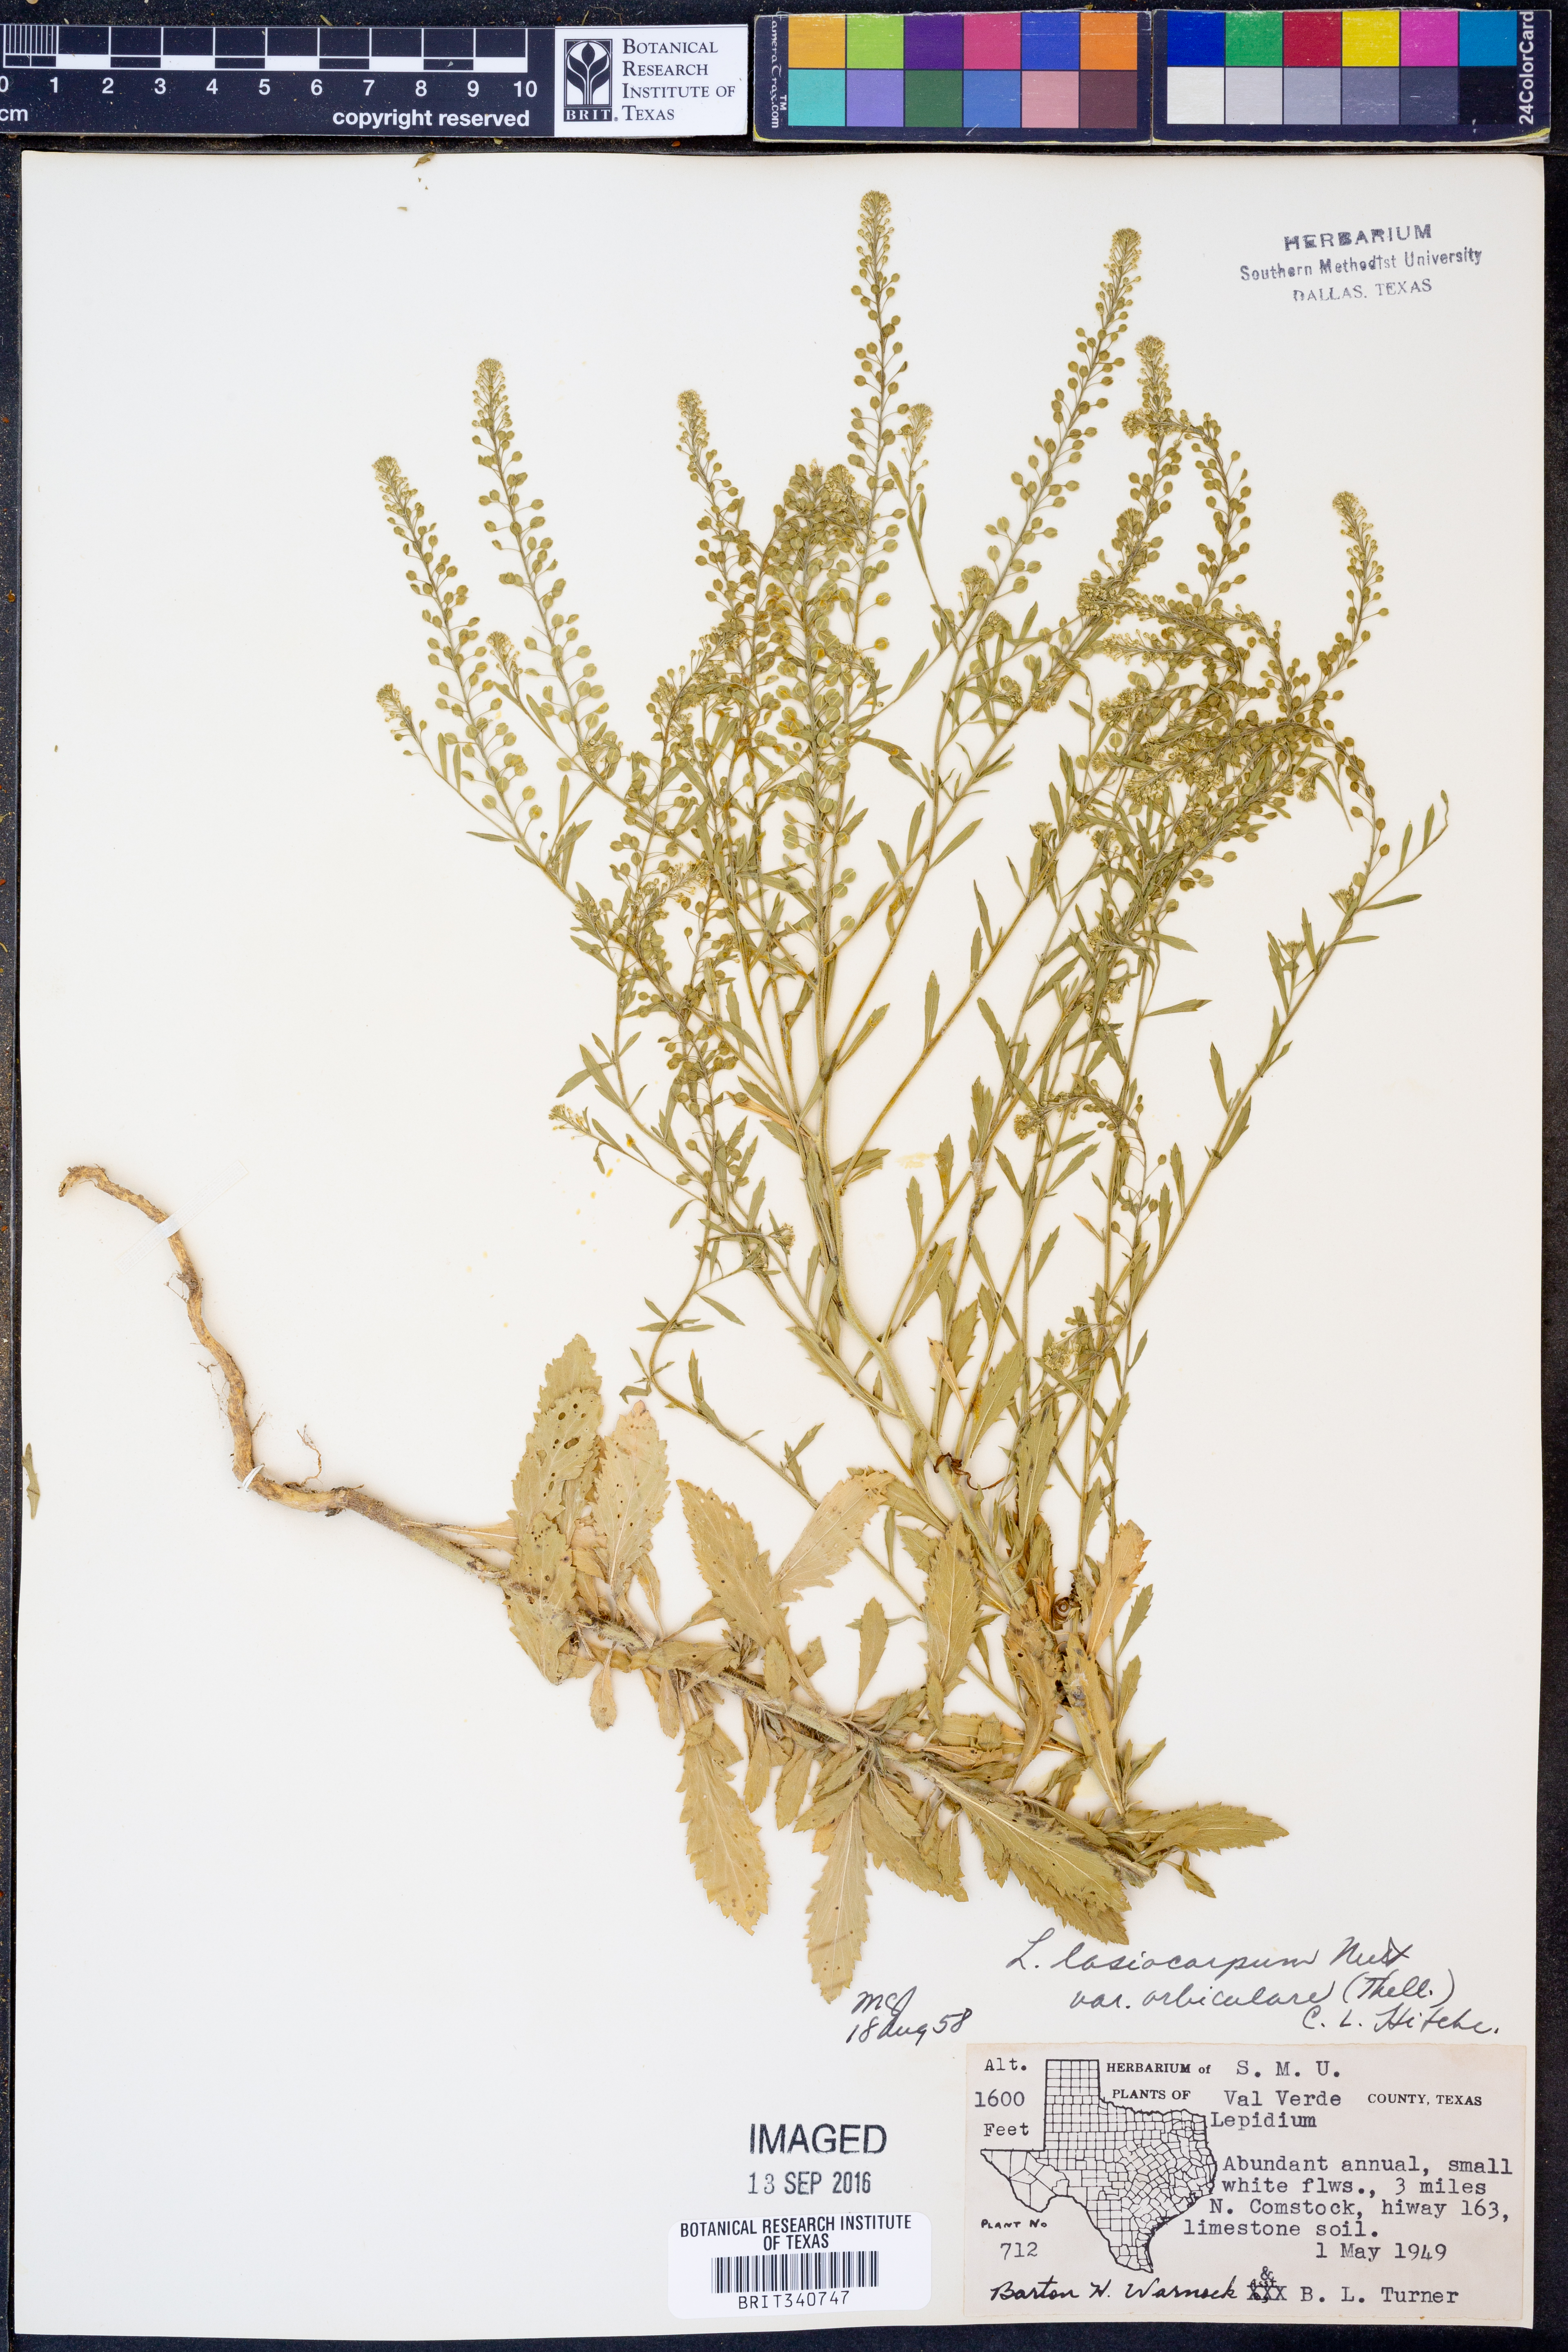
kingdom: Plantae
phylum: Tracheophyta
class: Magnoliopsida
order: Brassicales
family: Brassicaceae
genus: Lepidium
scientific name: Lepidium austrinum
